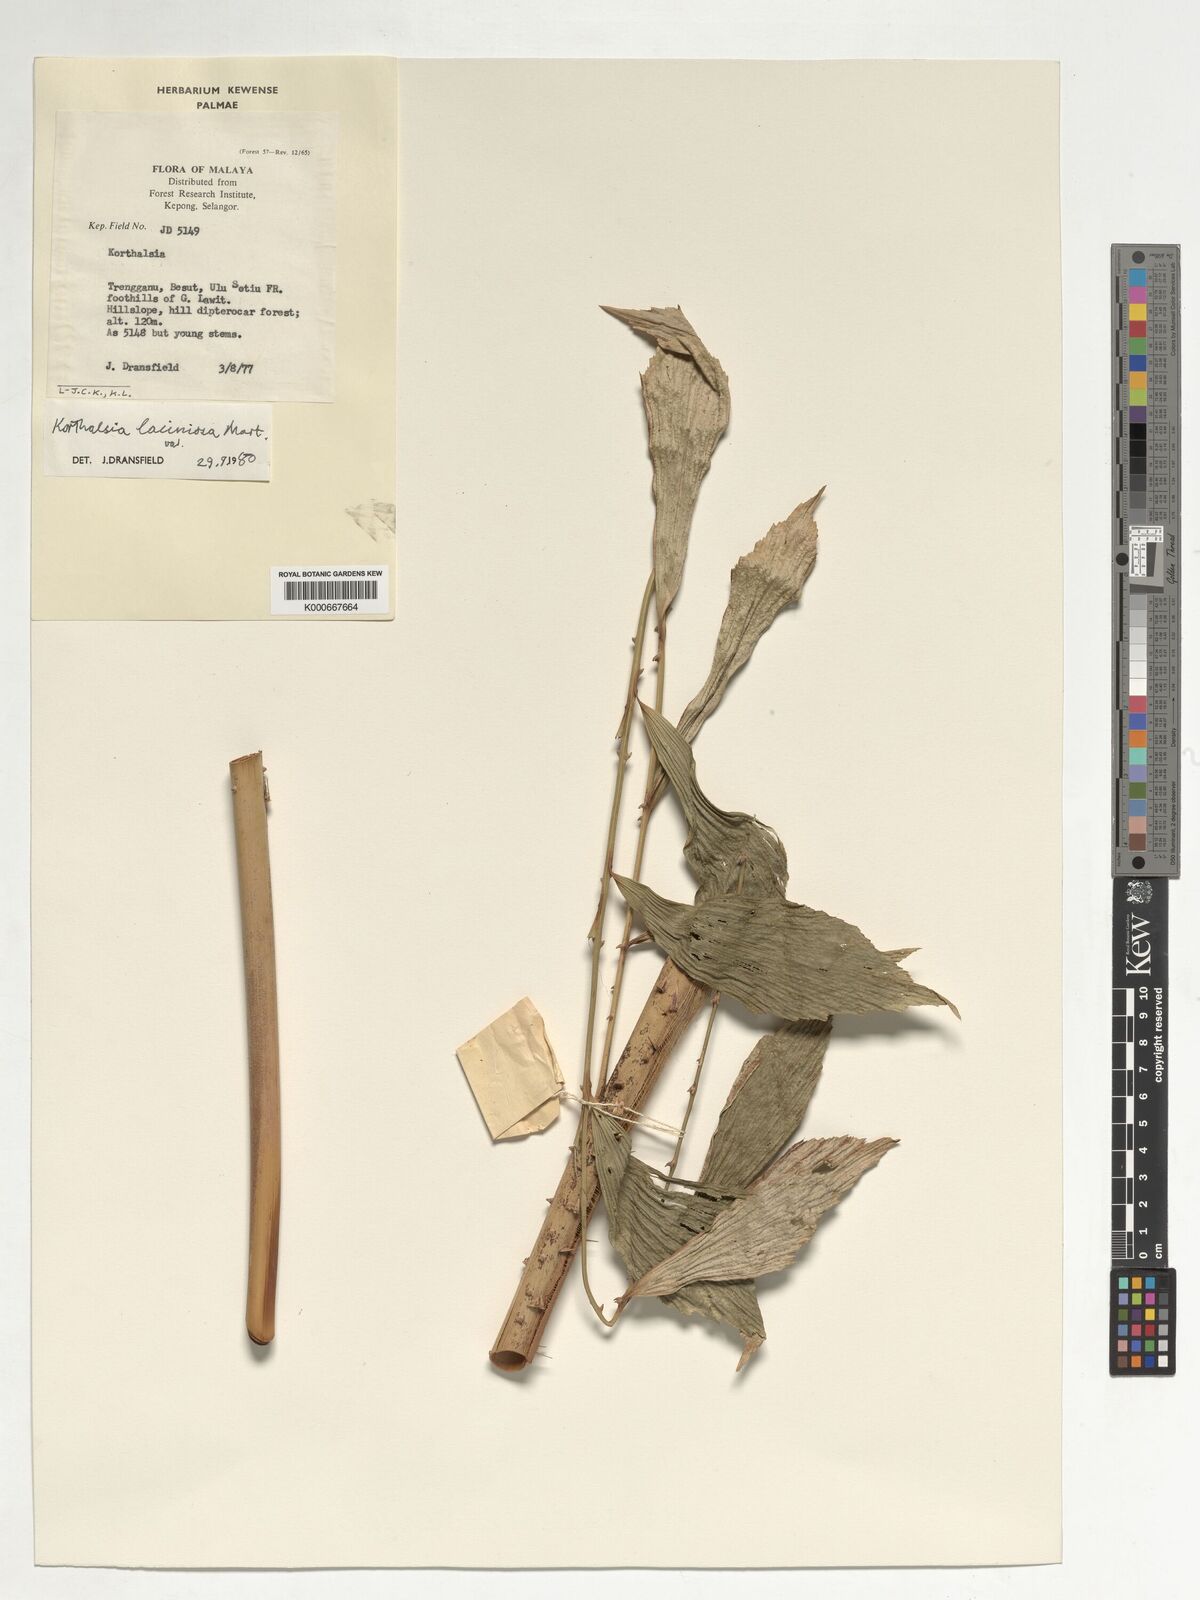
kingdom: Plantae
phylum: Tracheophyta
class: Liliopsida
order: Arecales
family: Arecaceae
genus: Korthalsia
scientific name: Korthalsia laciniosa
